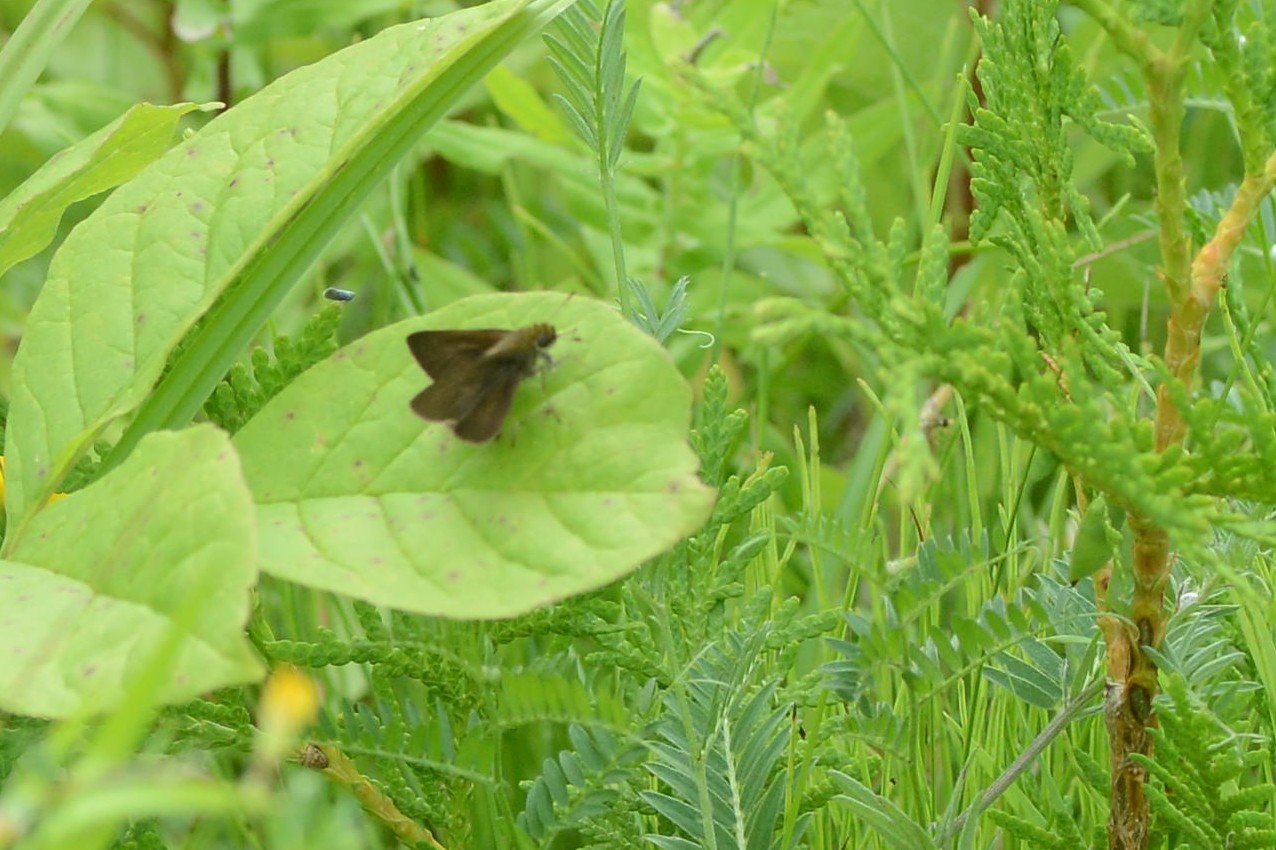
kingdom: Animalia
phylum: Arthropoda
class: Insecta
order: Lepidoptera
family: Hesperiidae
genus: Polites
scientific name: Polites egeremet
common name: Northern Broken-Dash
